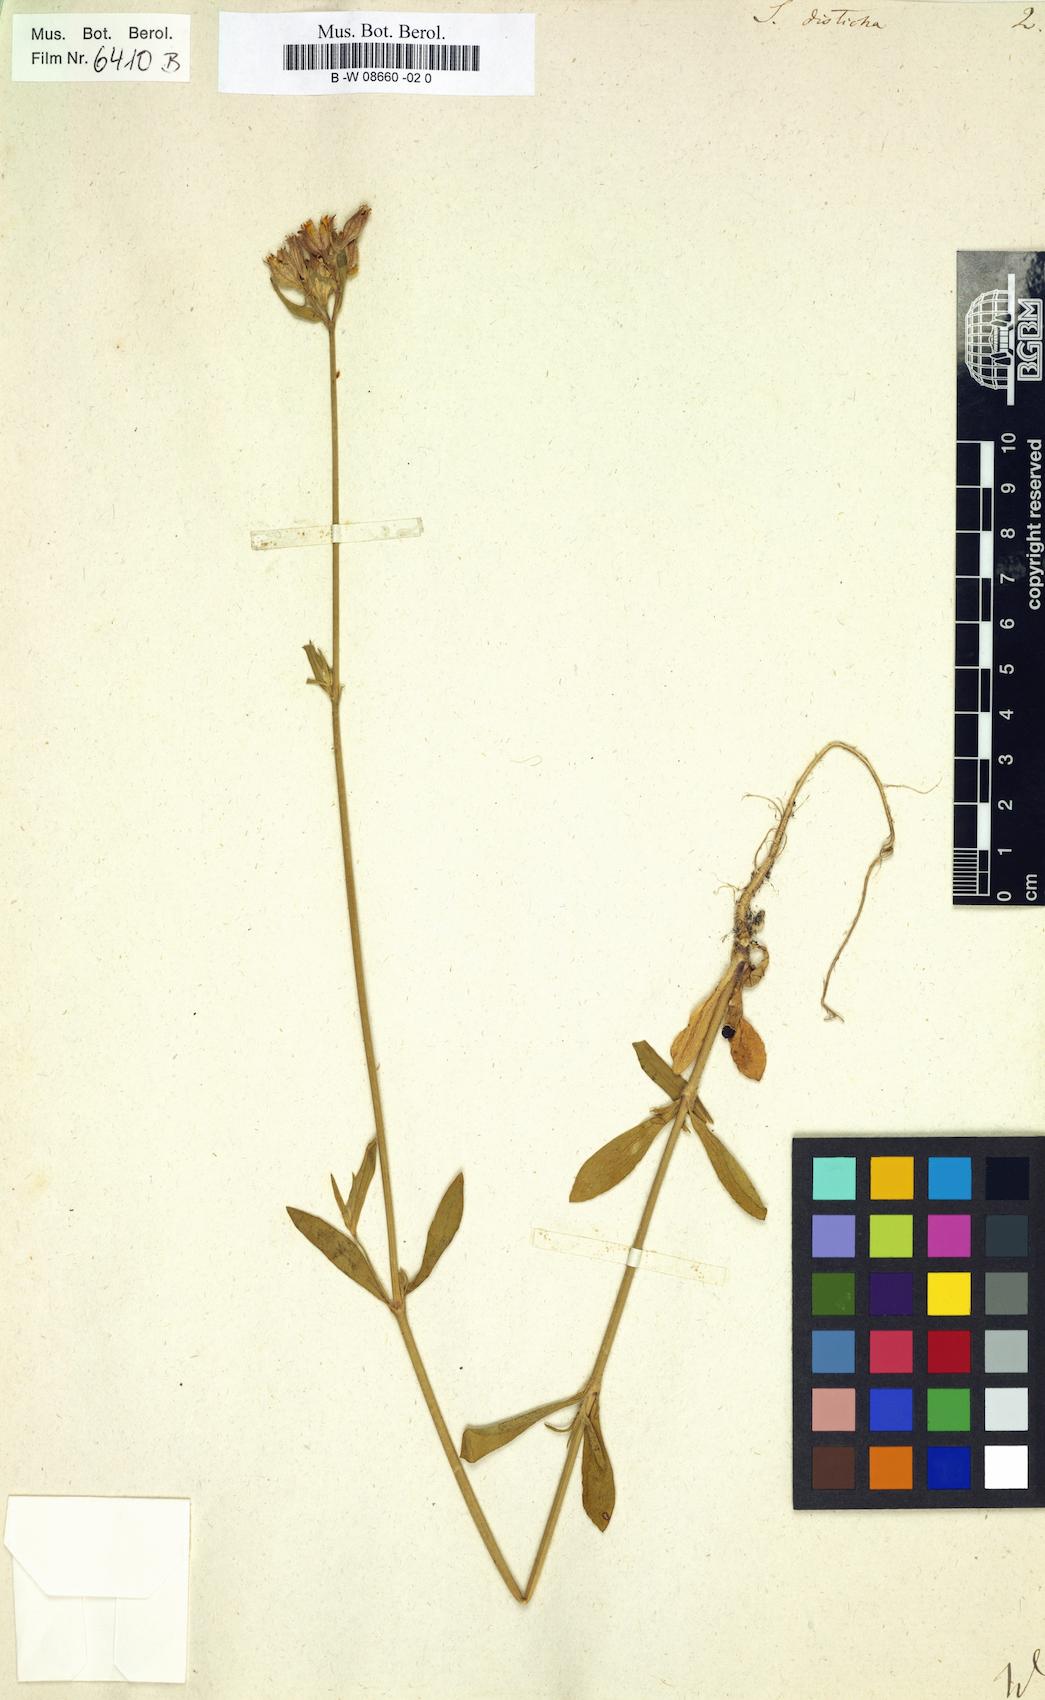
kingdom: Plantae
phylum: Tracheophyta
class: Magnoliopsida
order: Caryophyllales
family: Caryophyllaceae
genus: Silene
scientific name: Silene disticha
